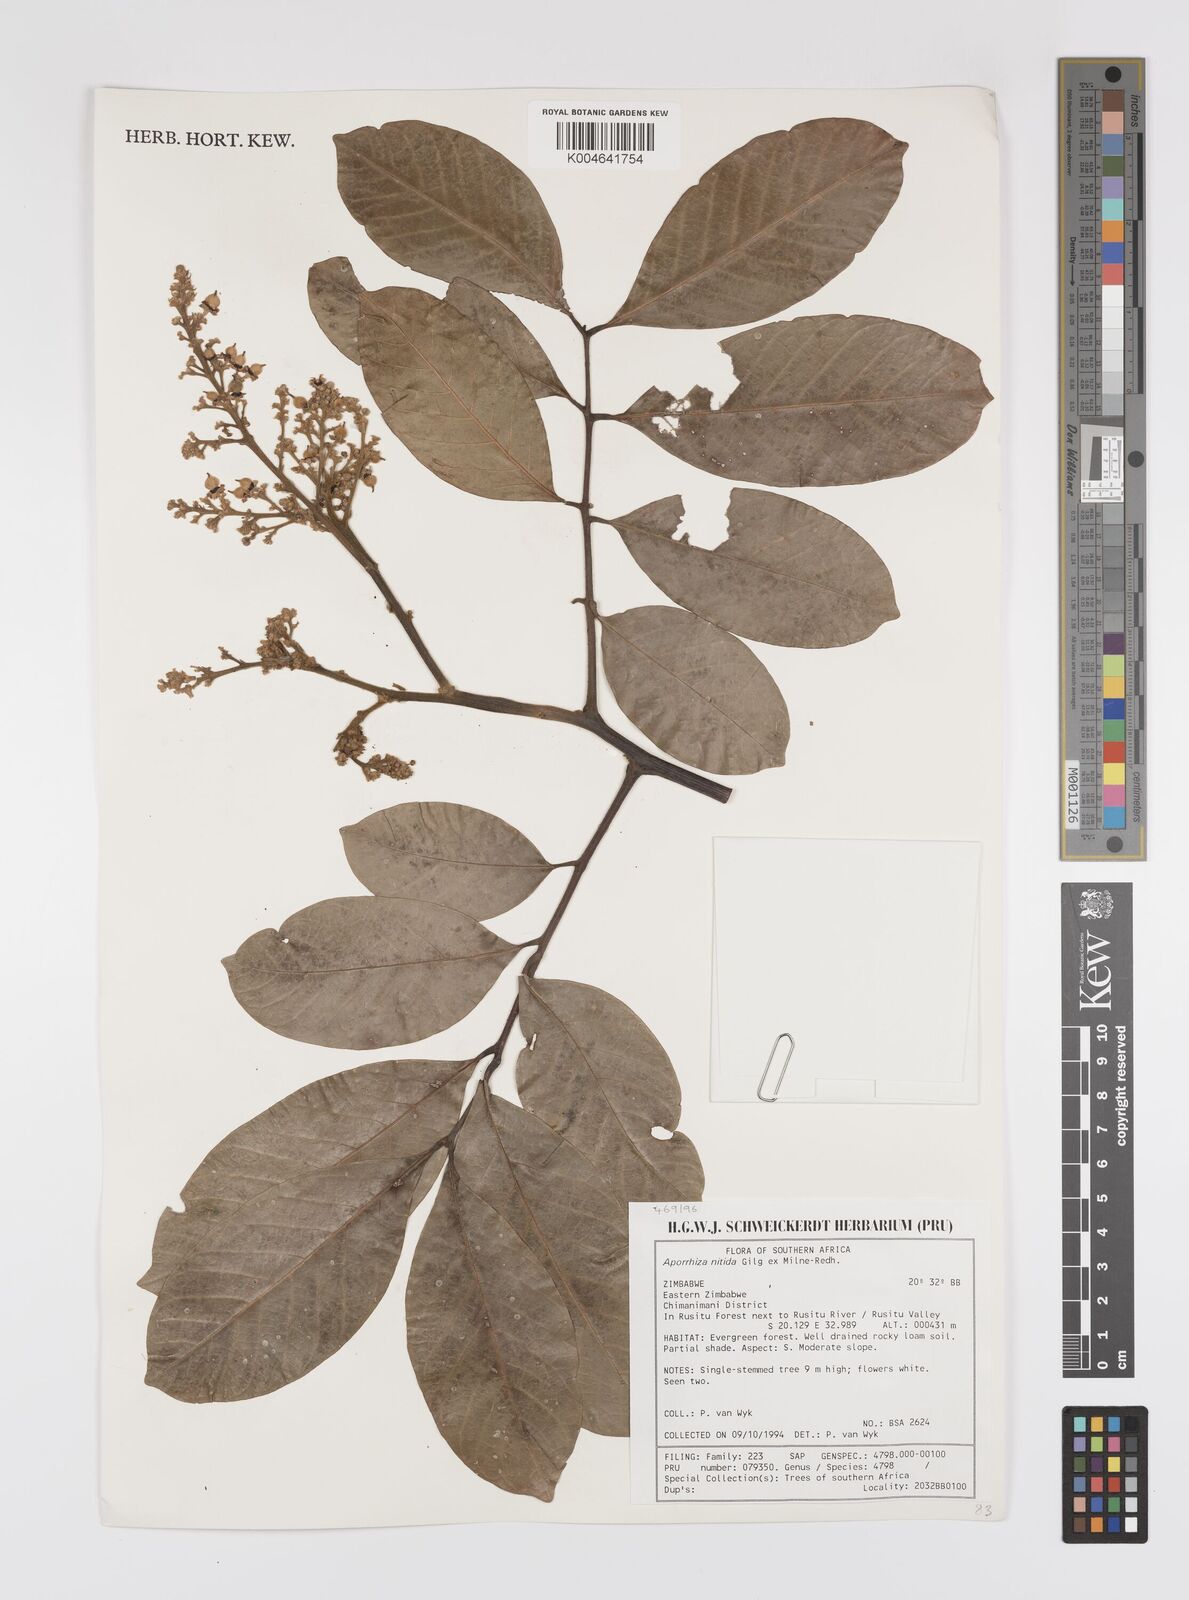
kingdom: Plantae
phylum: Tracheophyta
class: Magnoliopsida
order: Sapindales
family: Sapindaceae
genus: Aporrhiza
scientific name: Aporrhiza paniculata
